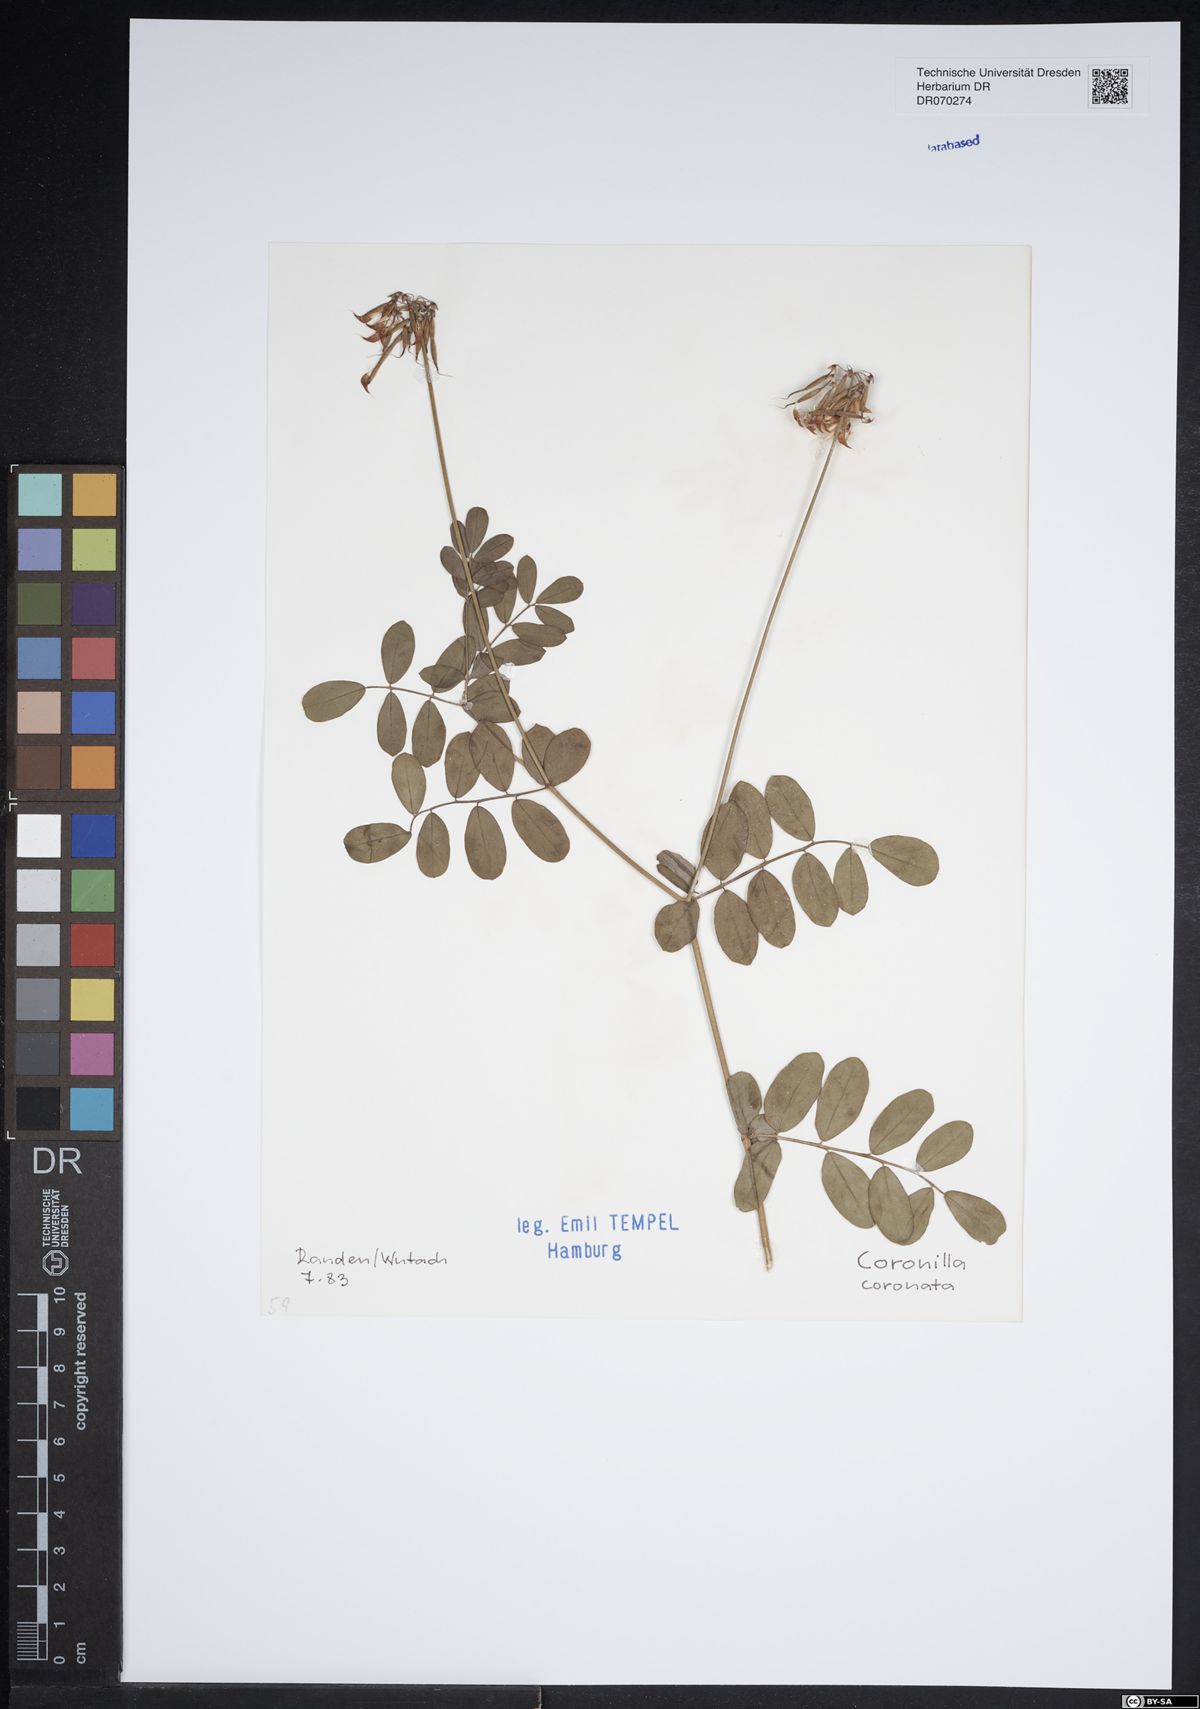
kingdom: Plantae
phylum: Tracheophyta
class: Magnoliopsida
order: Fabales
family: Fabaceae
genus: Coronilla
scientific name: Coronilla coronata
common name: Scorpion-vetch
